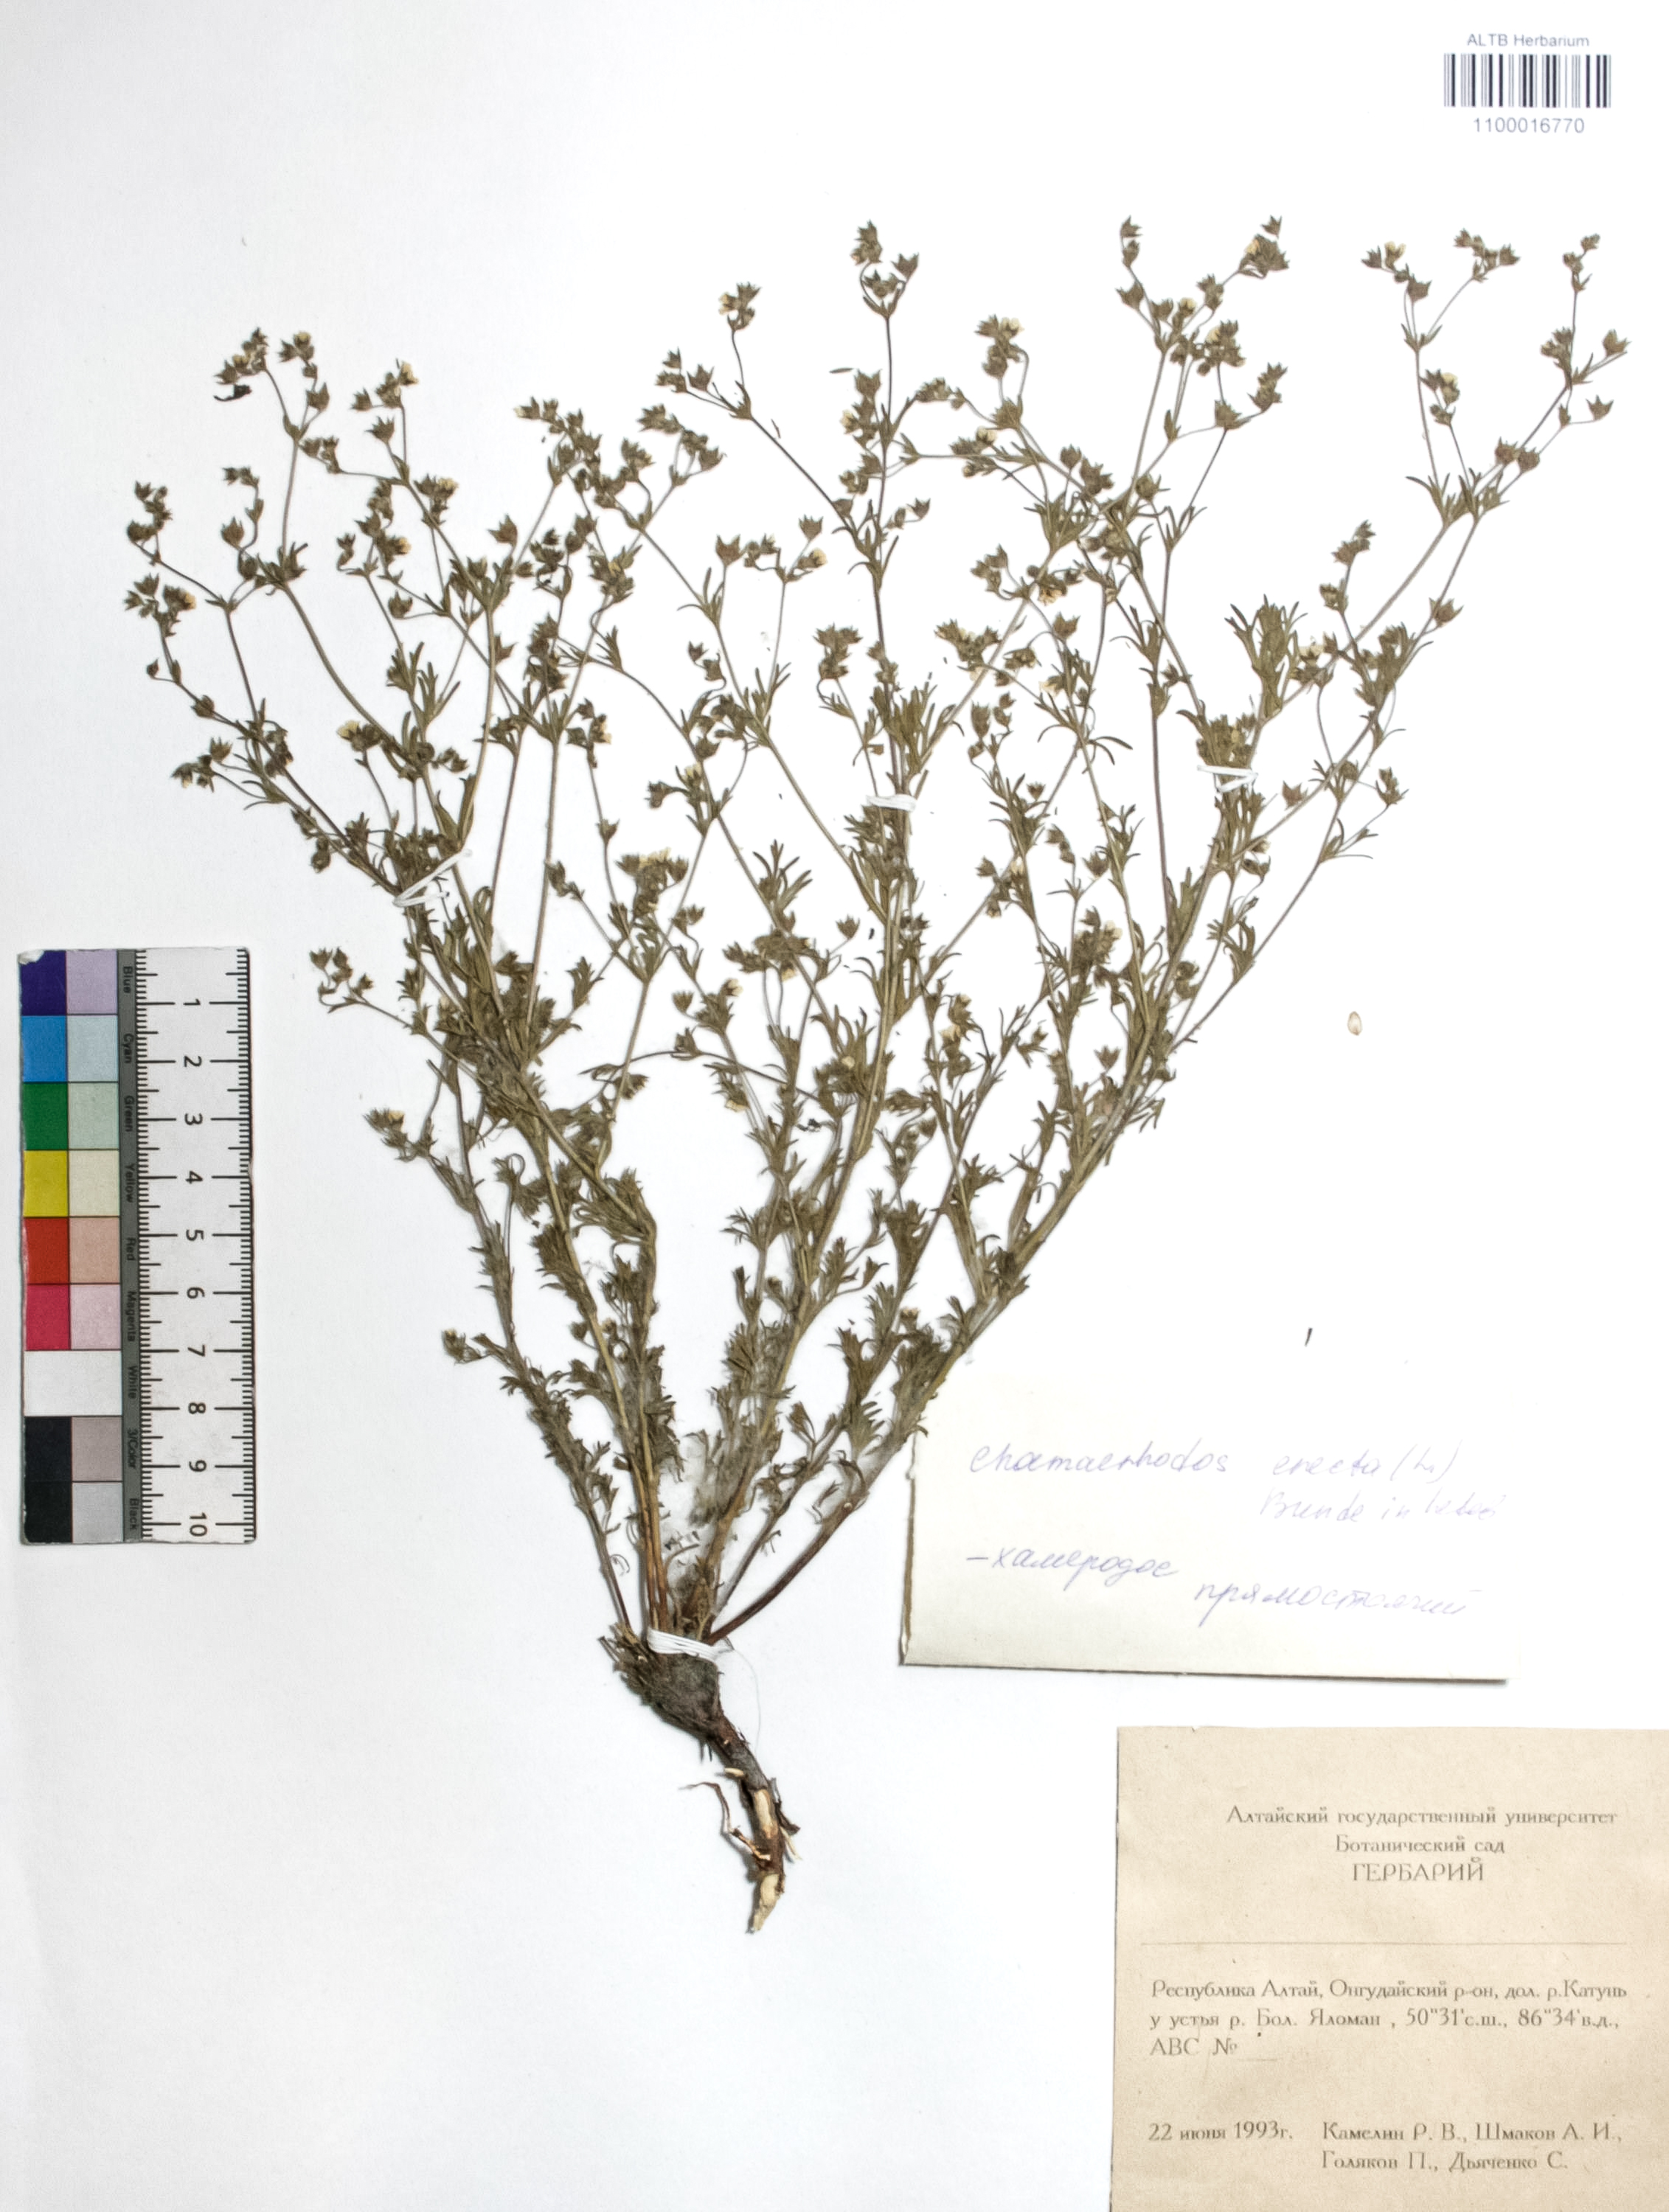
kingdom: Plantae
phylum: Tracheophyta
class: Magnoliopsida
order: Rosales
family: Rosaceae
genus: Chamaerhodos
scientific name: Chamaerhodos erecta
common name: American chamaerhodos
